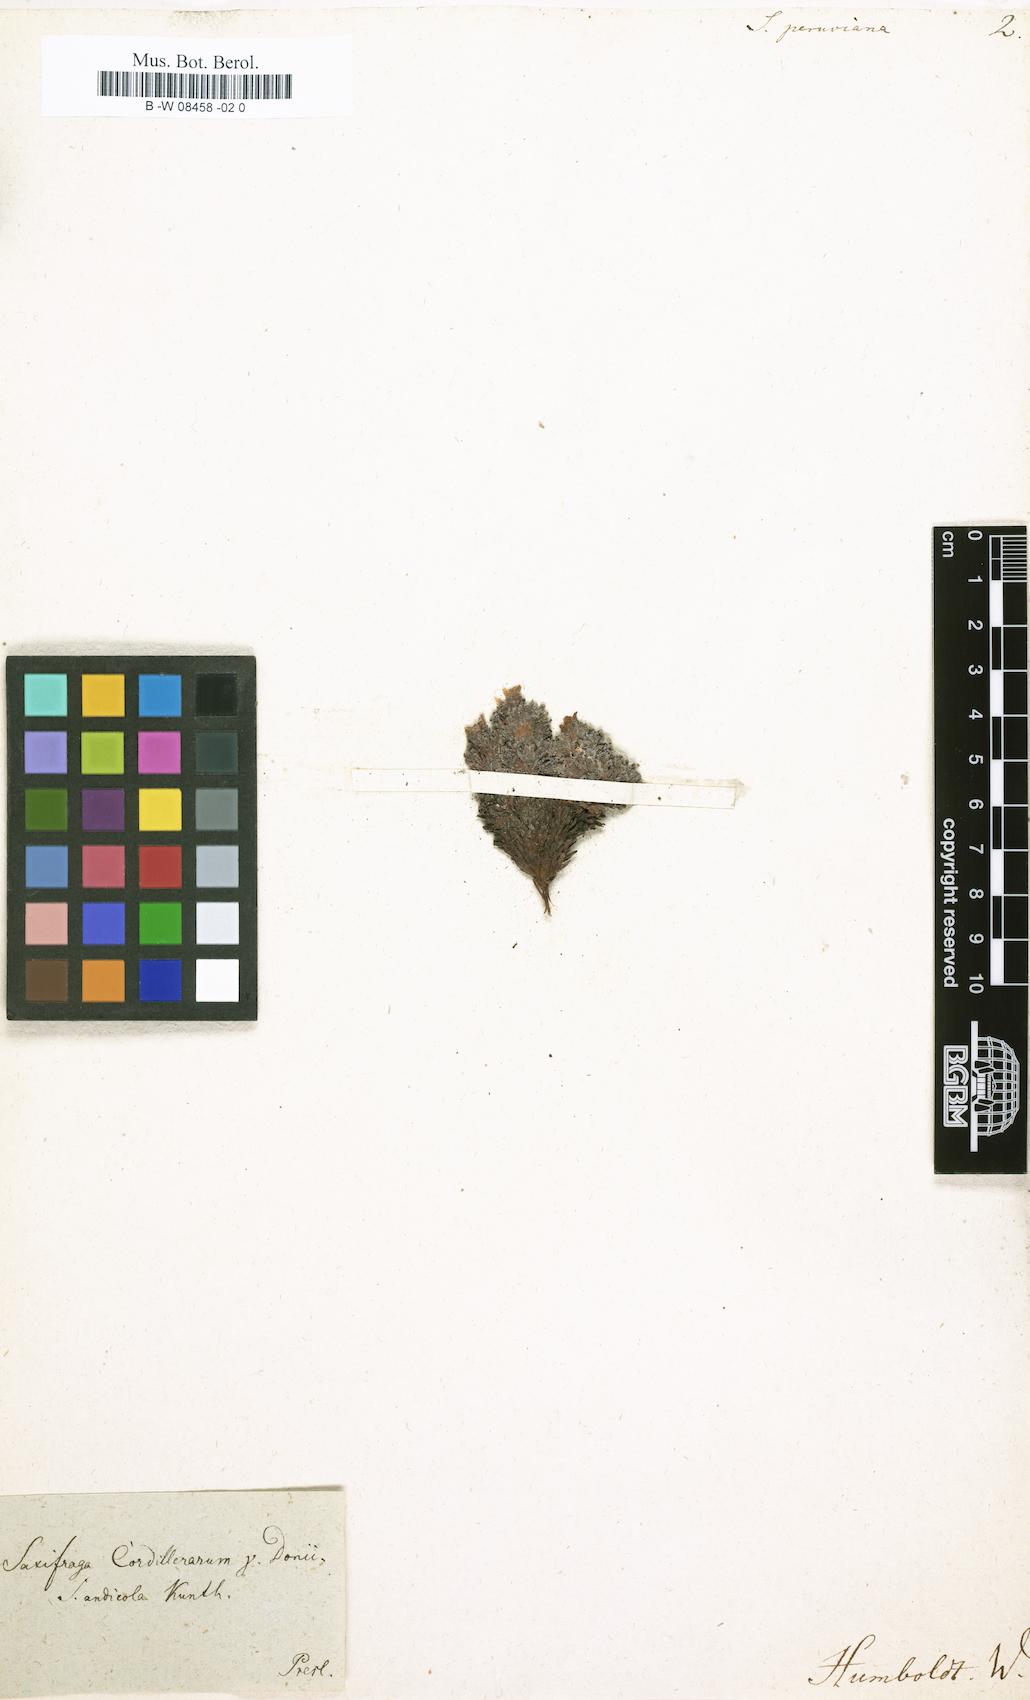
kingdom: Plantae
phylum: Tracheophyta
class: Magnoliopsida
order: Saxifragales
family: Saxifragaceae
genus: Saxifraga
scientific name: Saxifraga magellanica
